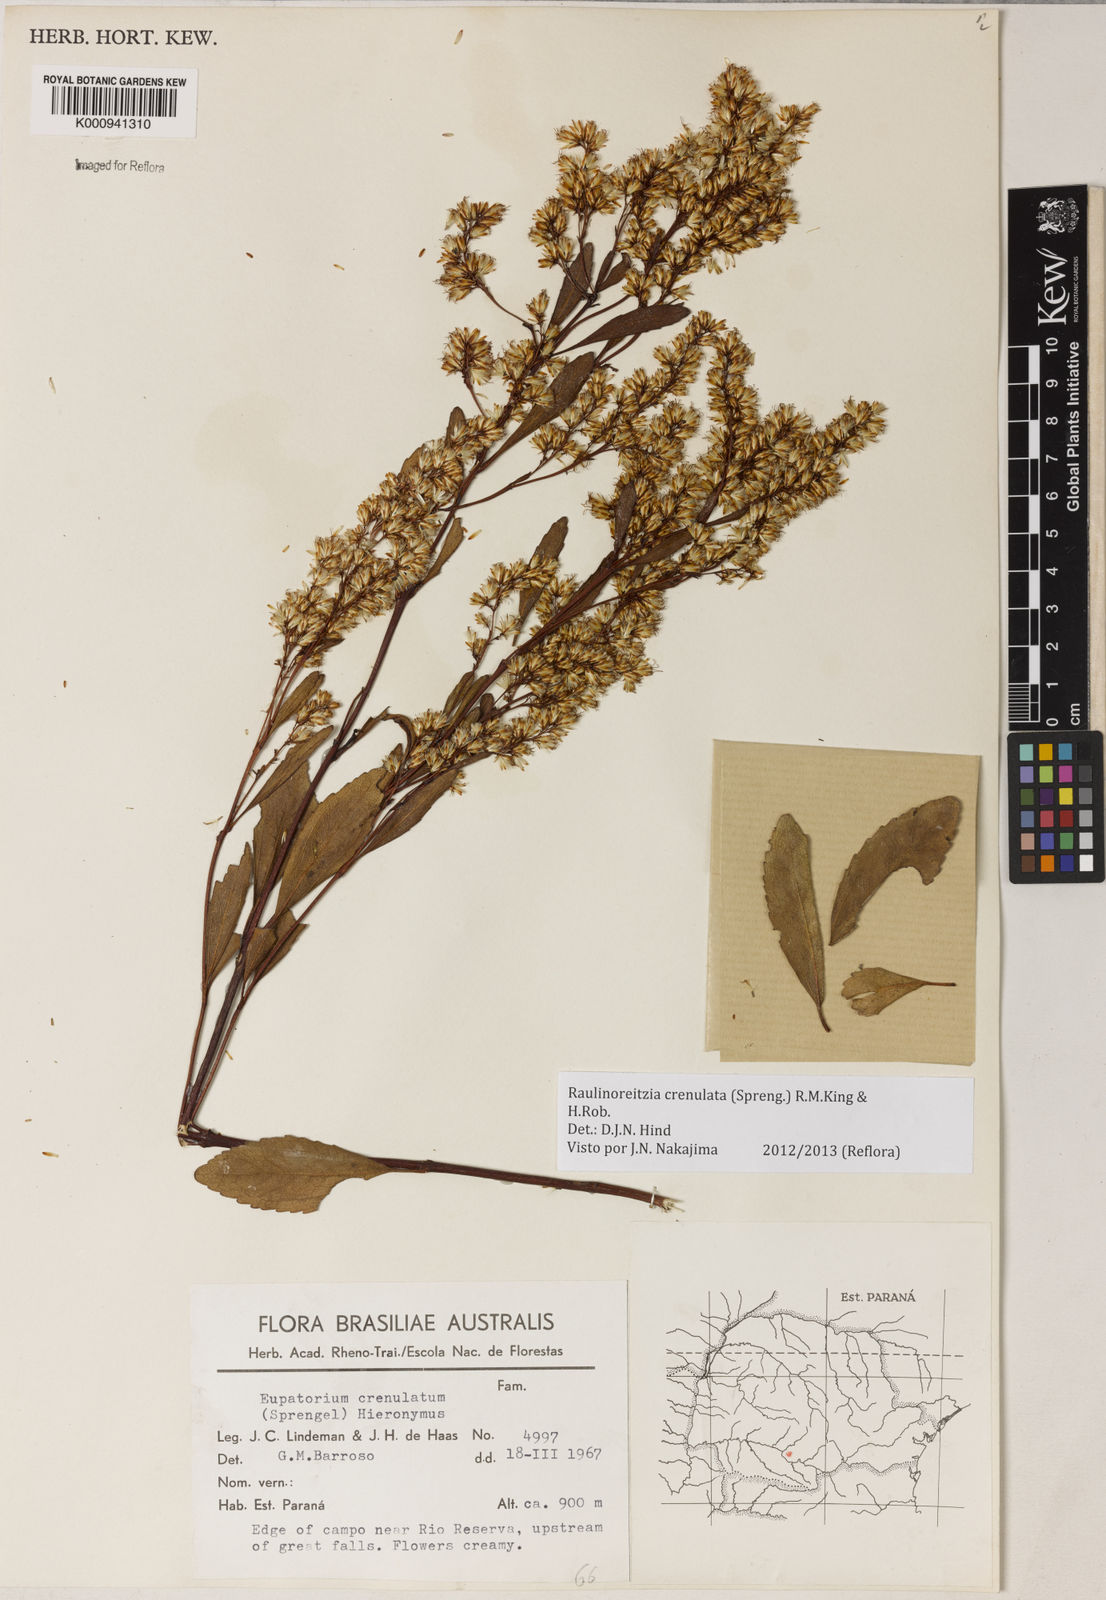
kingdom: Plantae
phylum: Tracheophyta
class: Magnoliopsida
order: Asterales
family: Asteraceae
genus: Raulinoreitzia
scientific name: Raulinoreitzia crenulata
